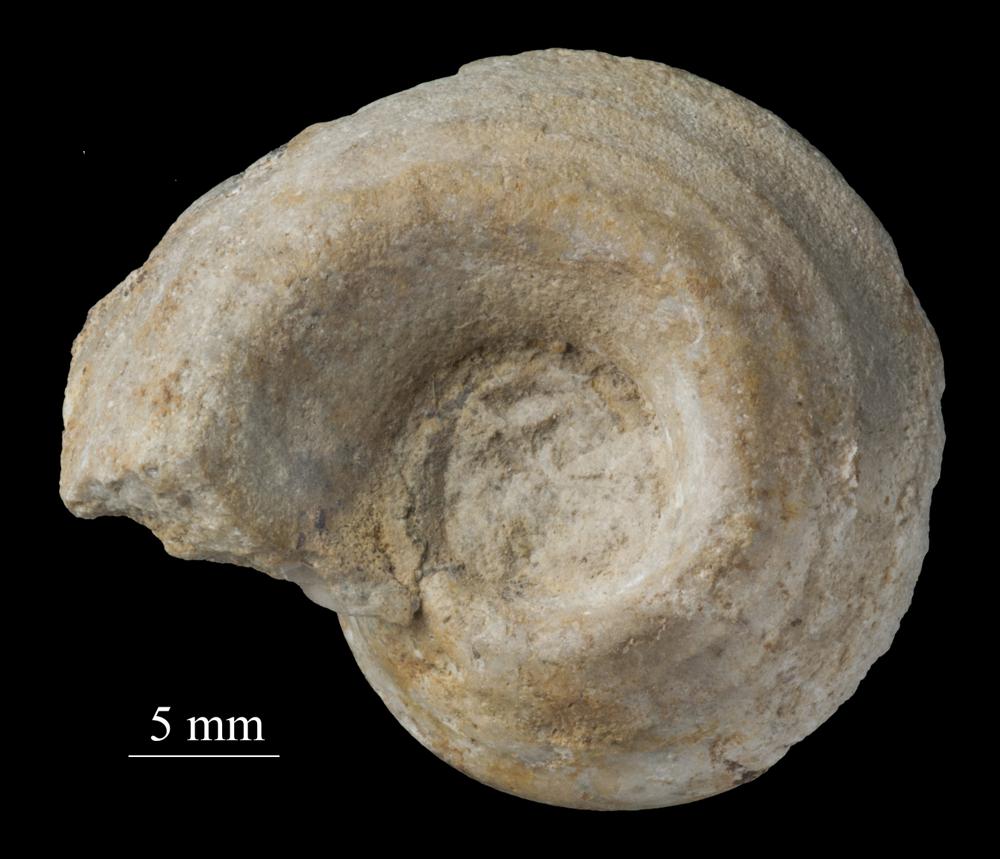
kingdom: Animalia
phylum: Mollusca
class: Gastropoda
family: Bellerophontidae
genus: Bellerophon
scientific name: Bellerophon
